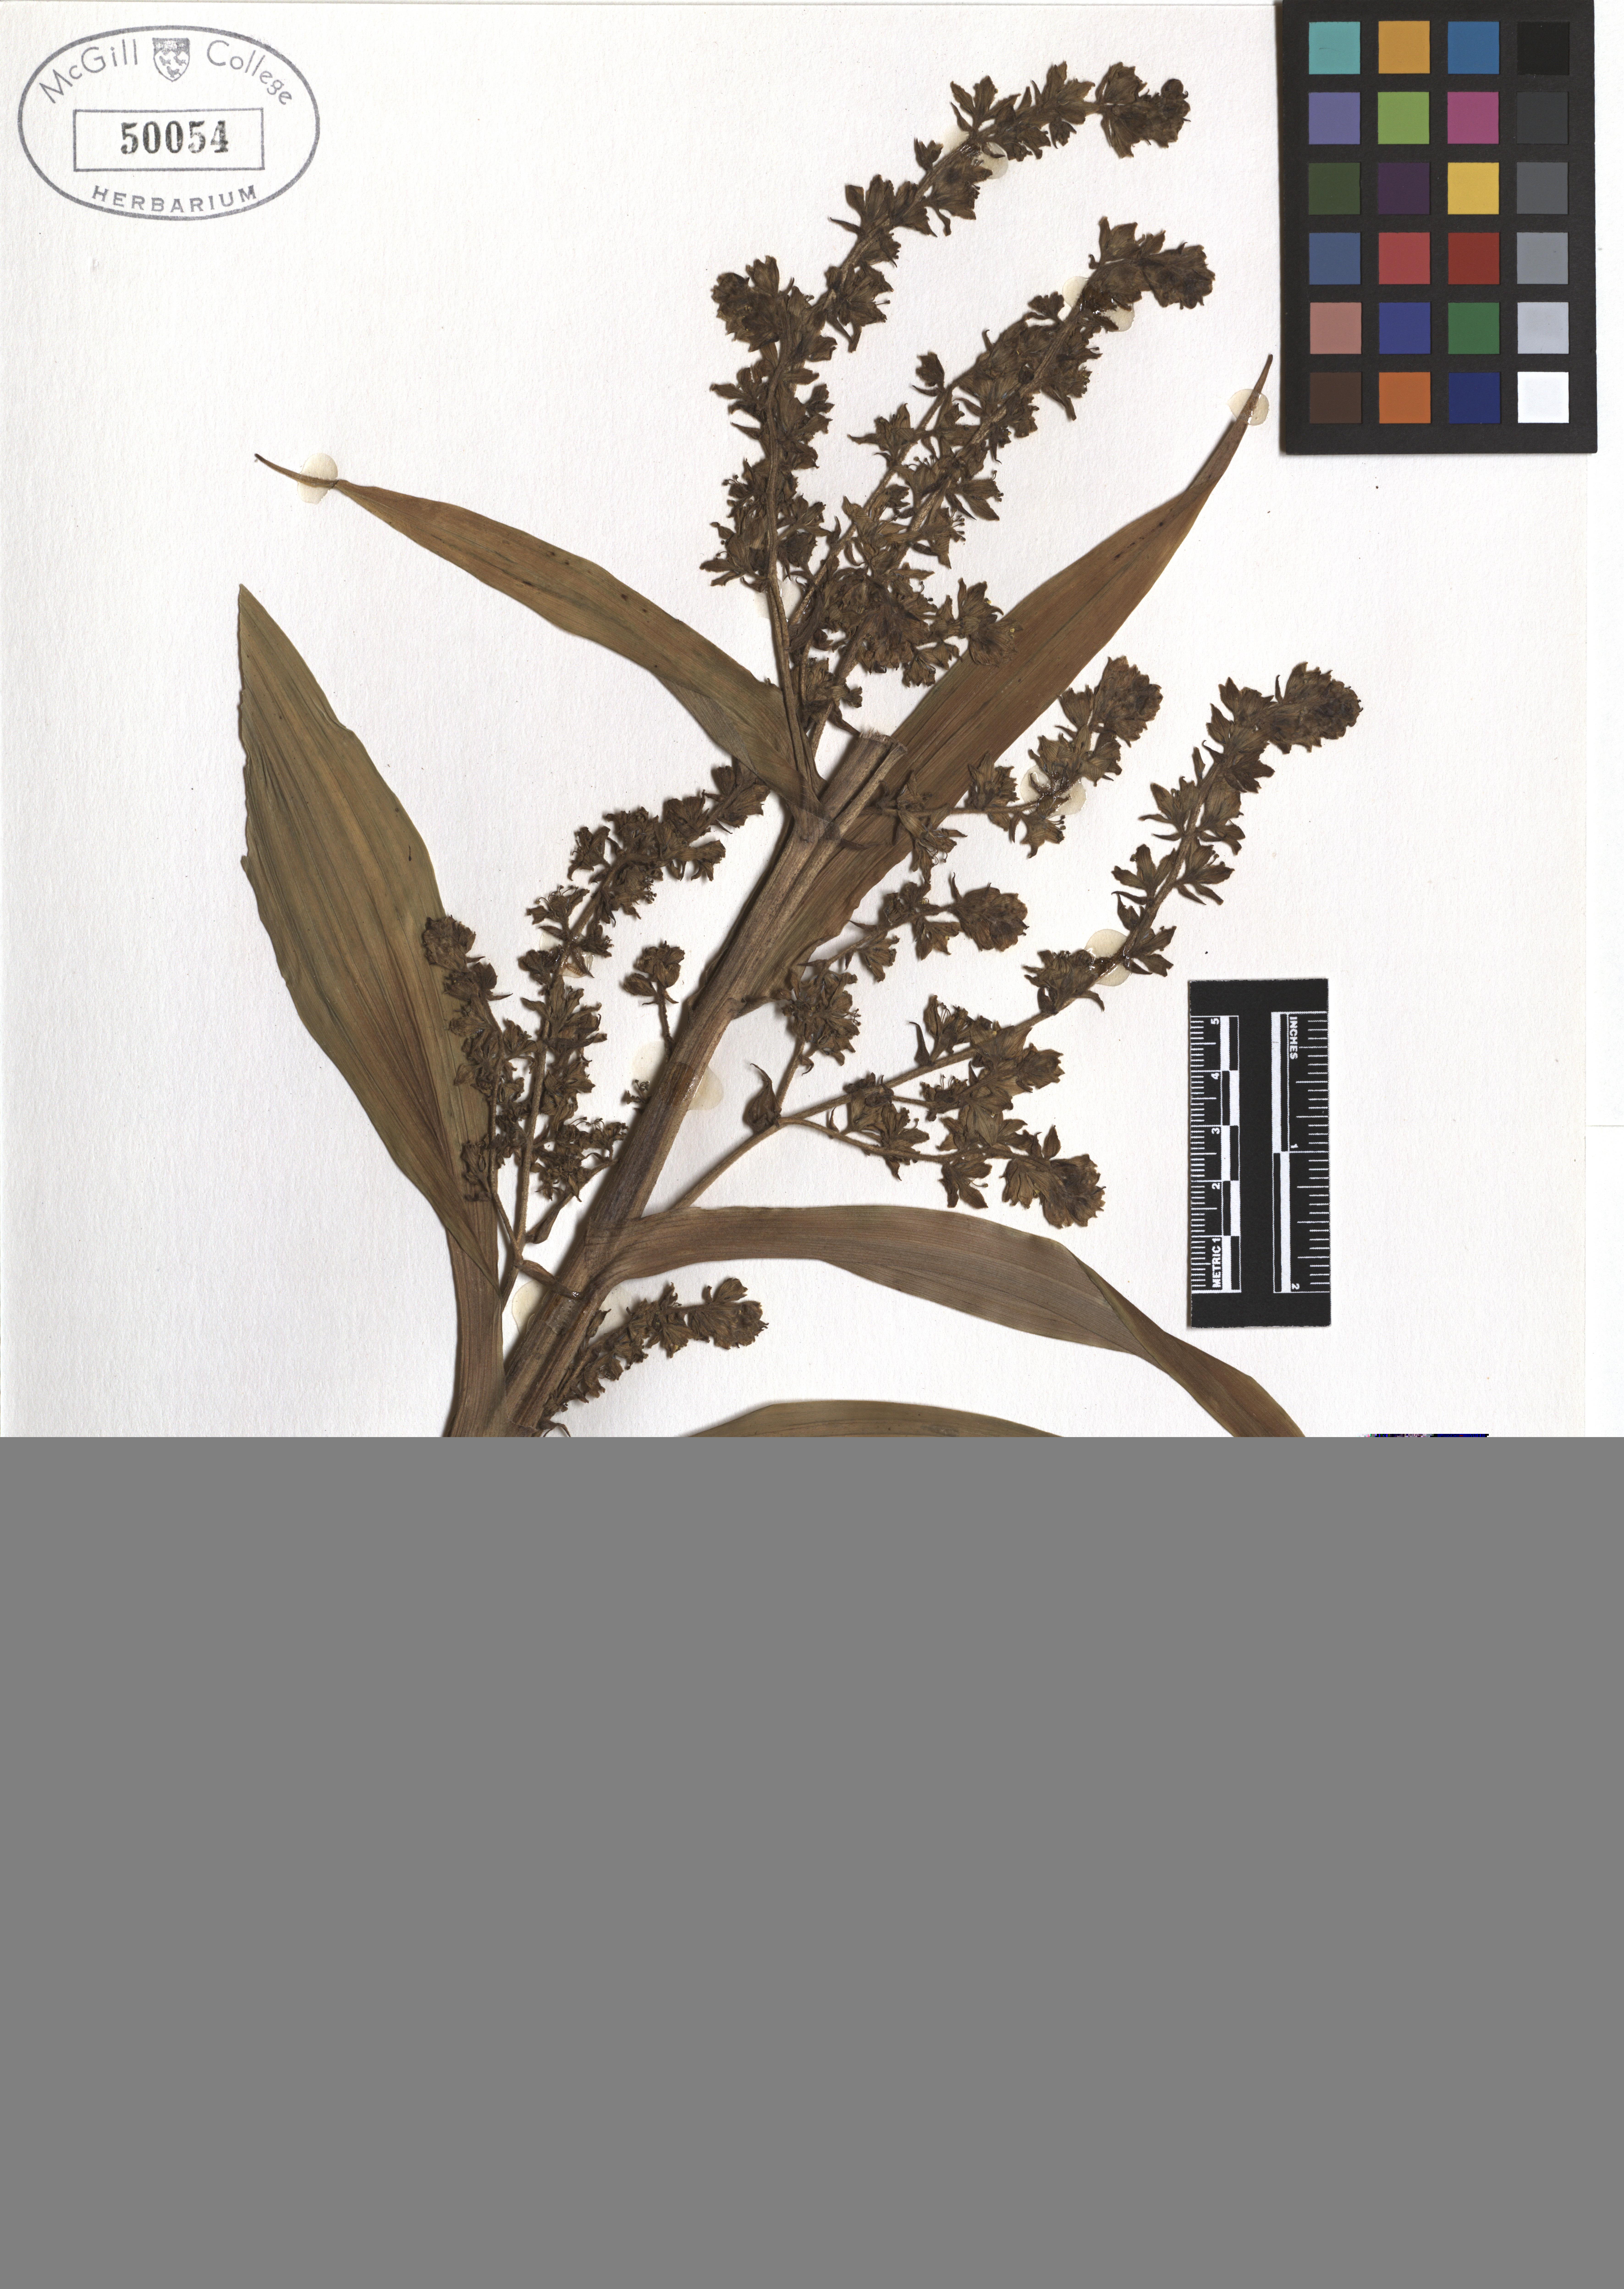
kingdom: Plantae
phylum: Tracheophyta
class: Liliopsida
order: Liliales
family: Melanthiaceae
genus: Veratrum
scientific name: Veratrum viride
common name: American false hellebore
